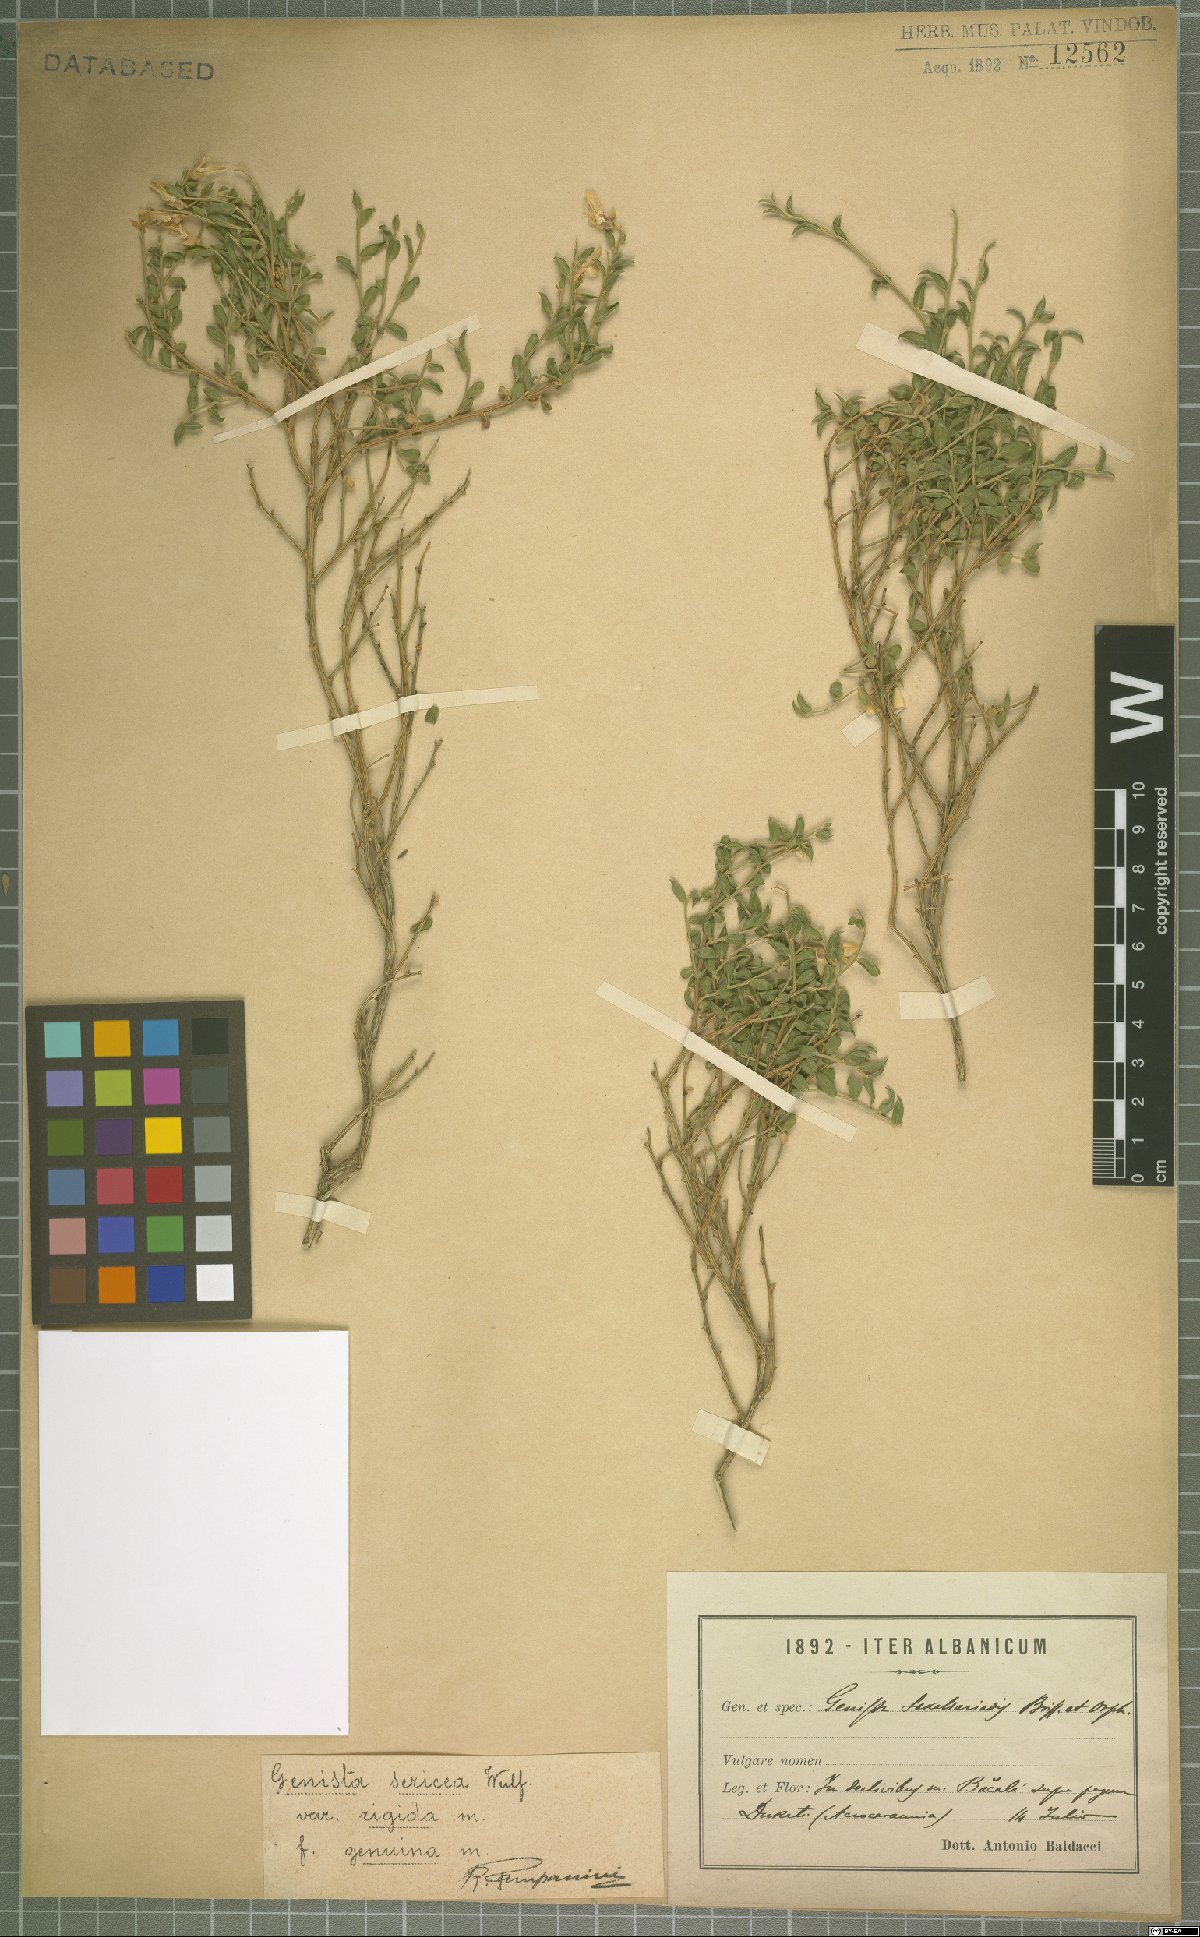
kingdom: Plantae
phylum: Tracheophyta
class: Magnoliopsida
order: Fabales
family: Fabaceae
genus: Genista
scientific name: Genista sericea
